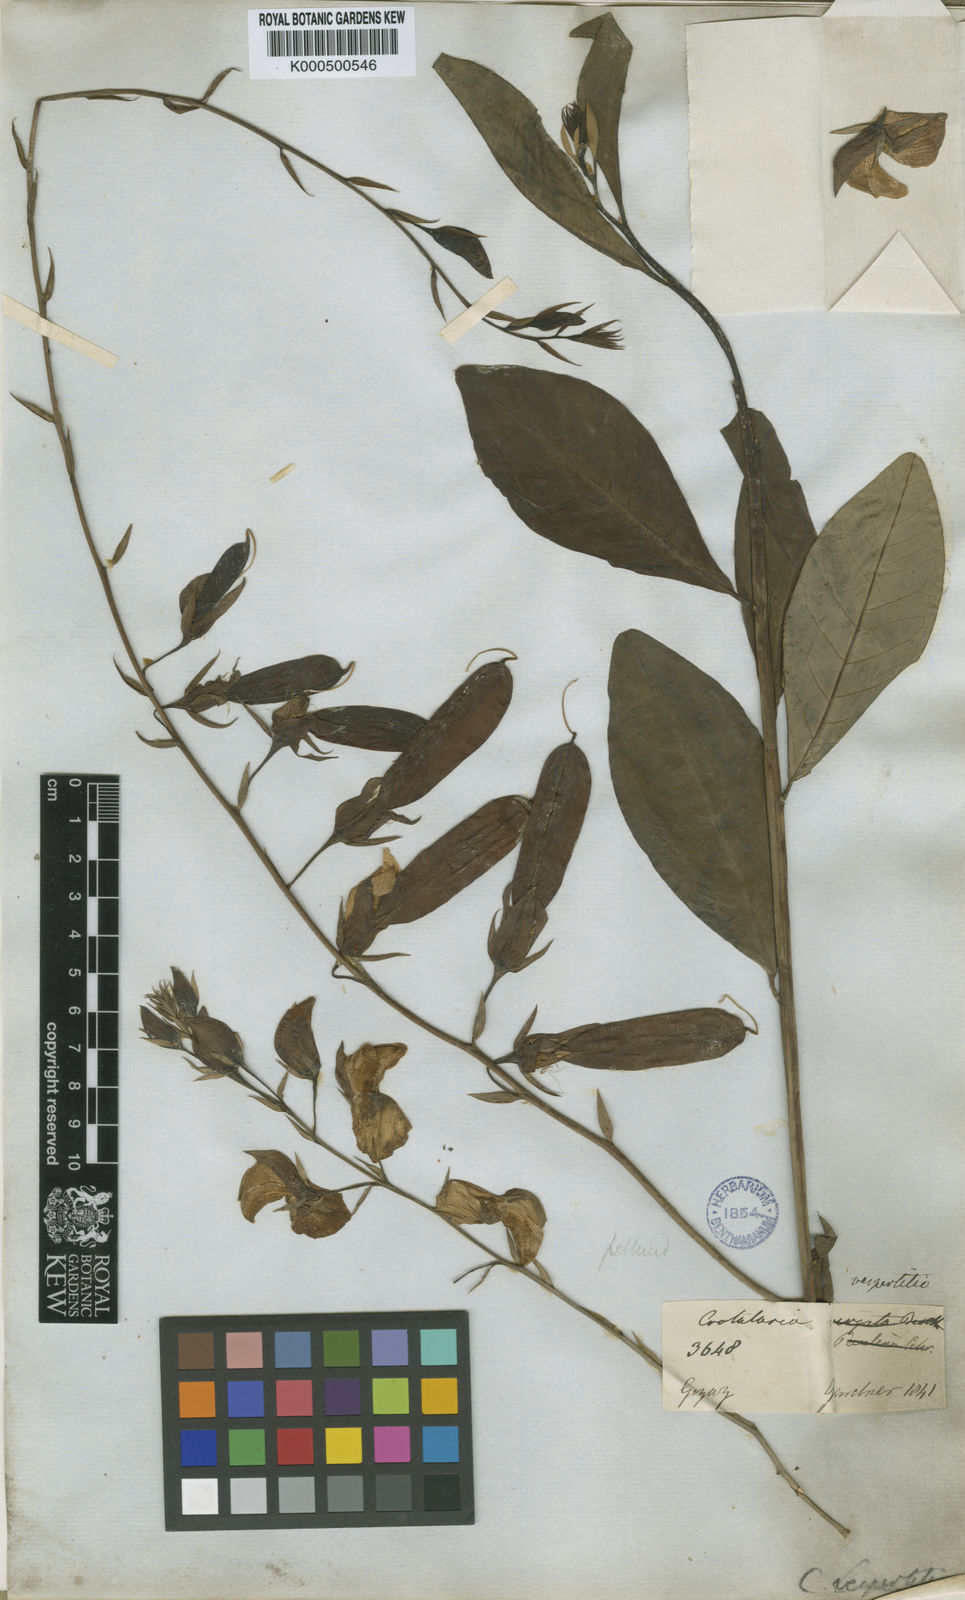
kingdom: Plantae
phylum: Tracheophyta
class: Magnoliopsida
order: Fabales
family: Fabaceae
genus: Crotalaria
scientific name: Crotalaria vespertilio
